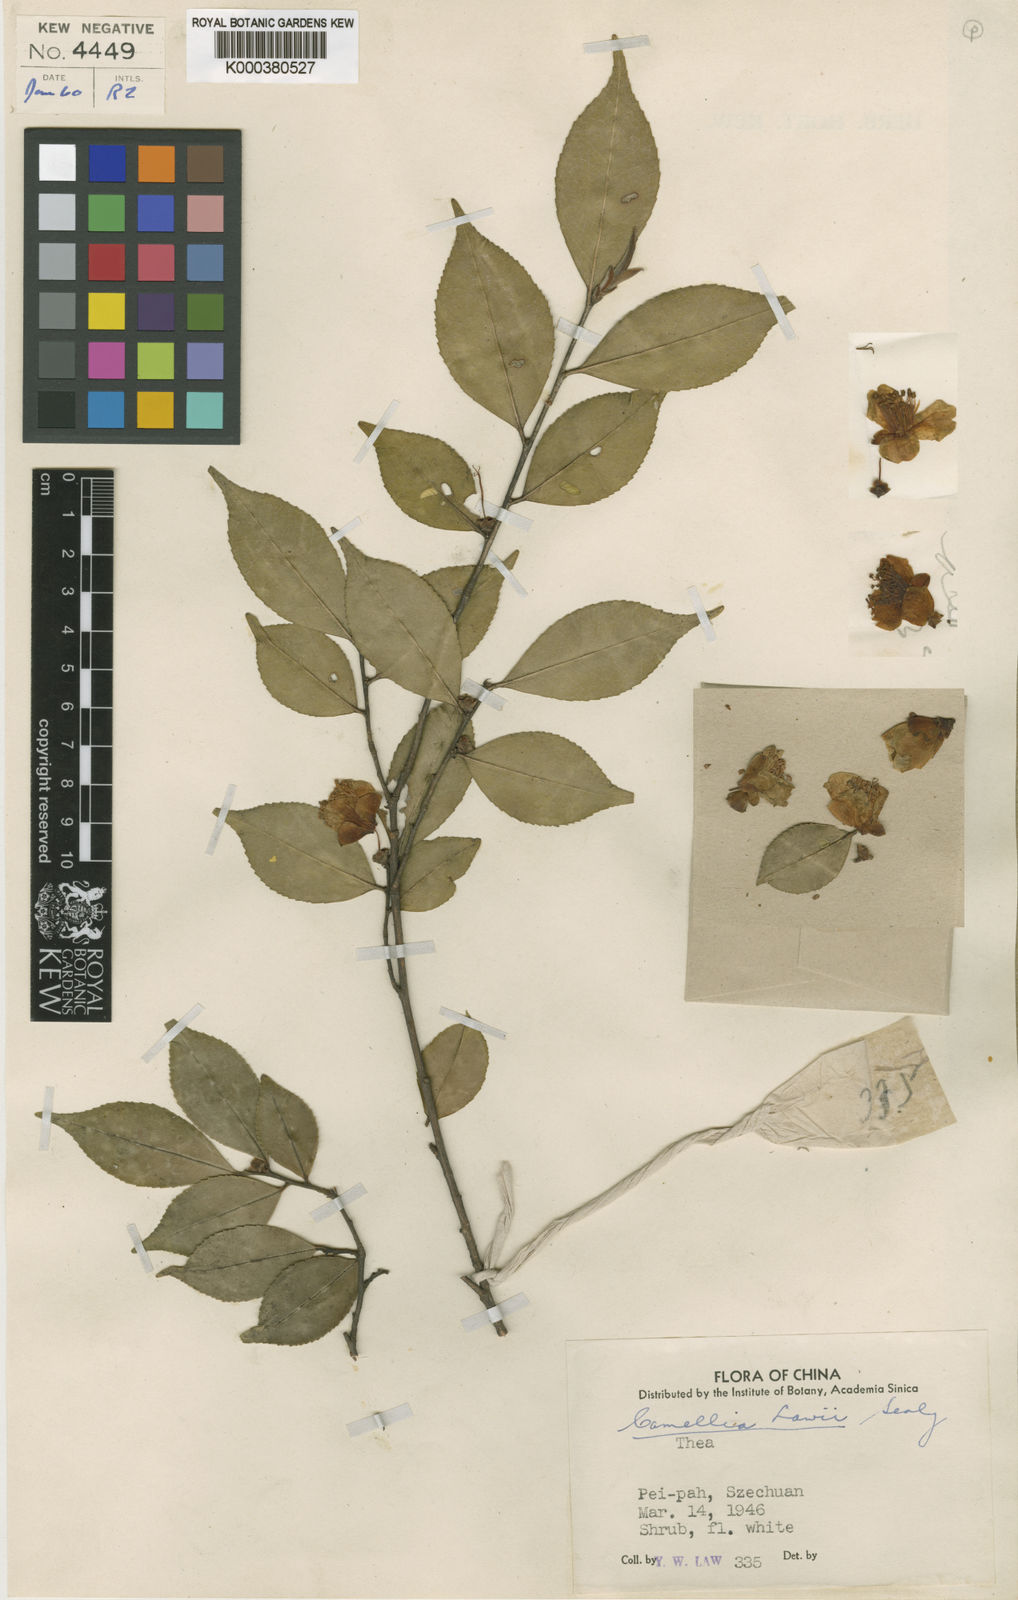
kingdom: Plantae
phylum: Tracheophyta
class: Magnoliopsida
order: Ericales
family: Theaceae
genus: Camellia
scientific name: Camellia lawii
